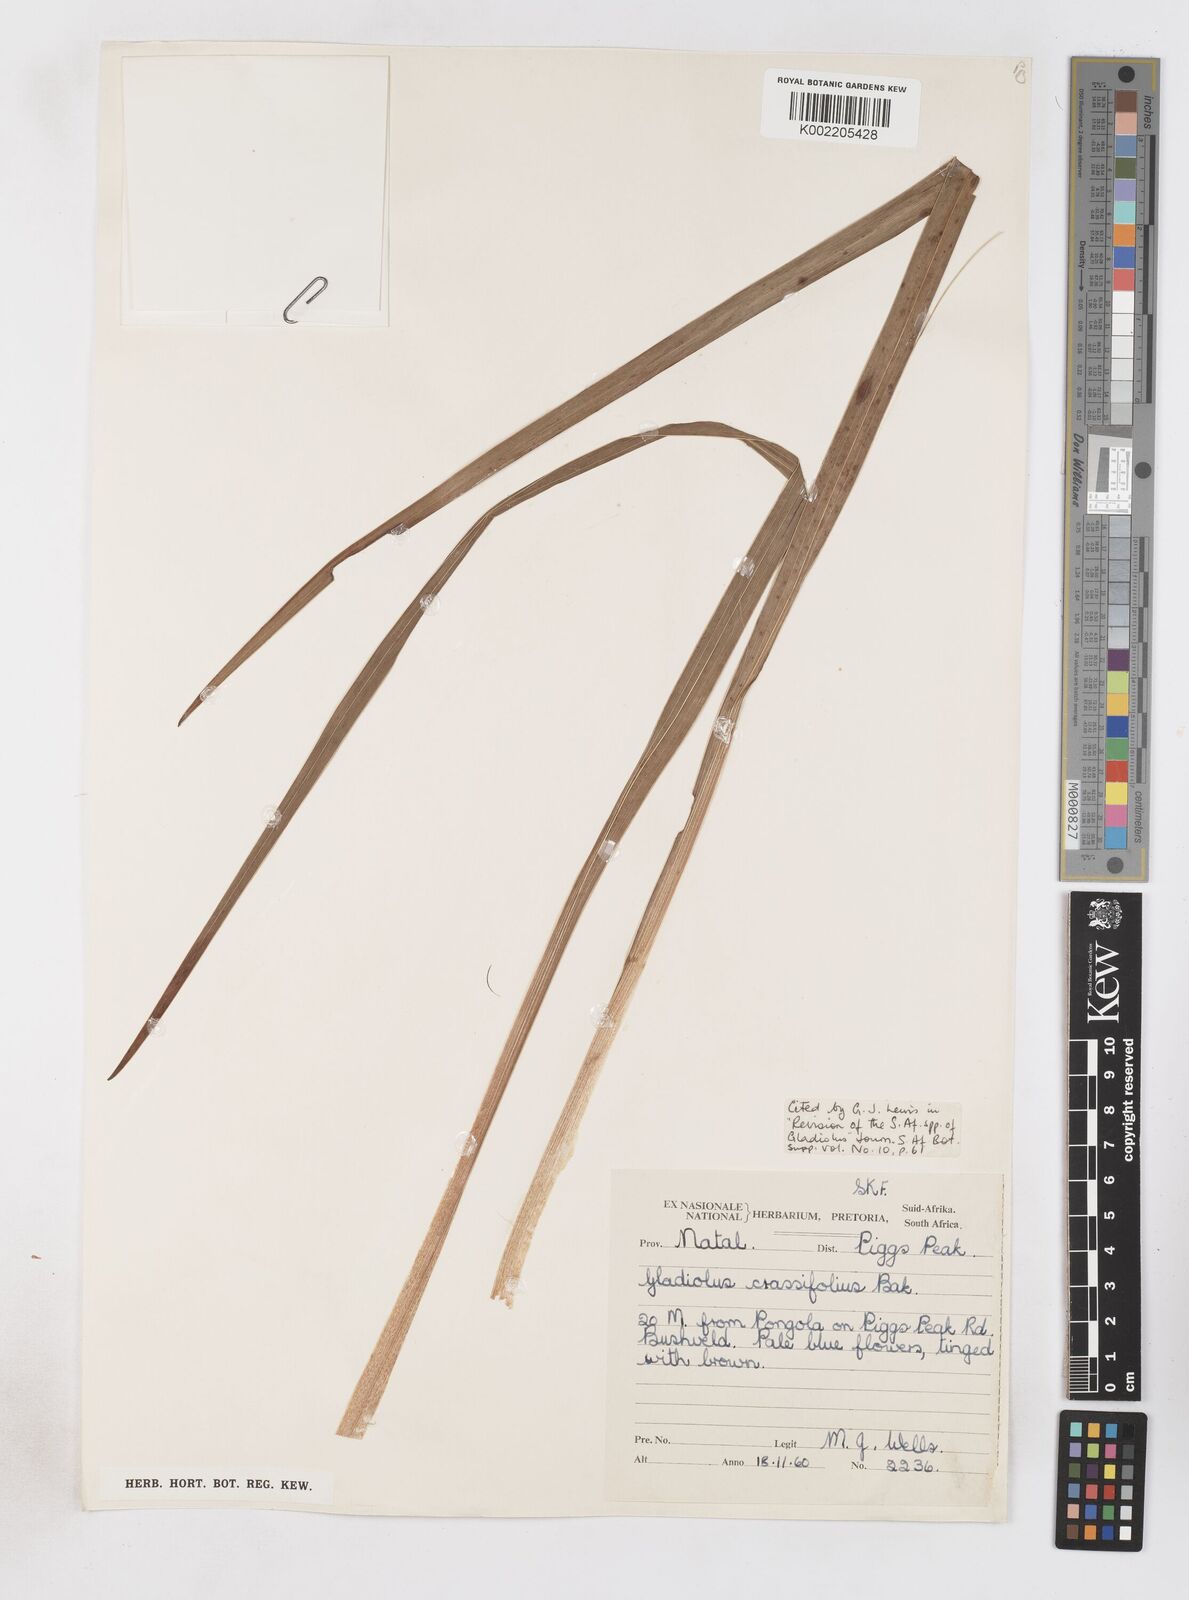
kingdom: Plantae
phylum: Tracheophyta
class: Liliopsida
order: Asparagales
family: Iridaceae
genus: Gladiolus
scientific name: Gladiolus densiflorus
